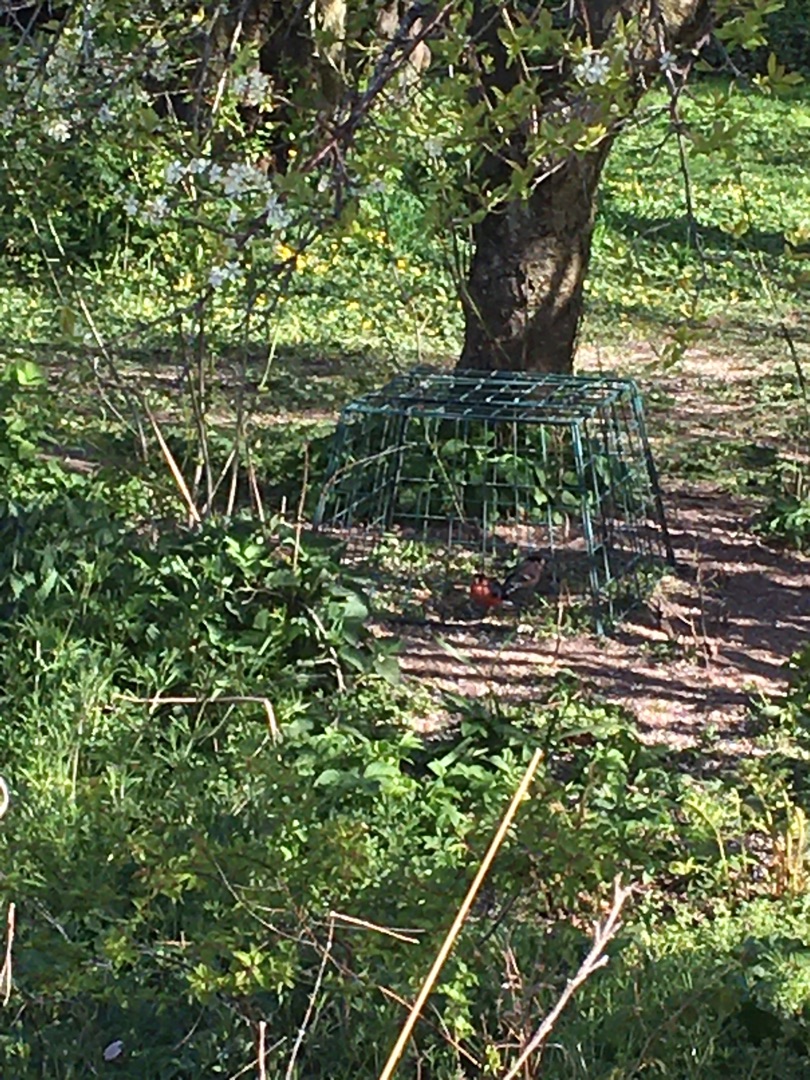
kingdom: Animalia
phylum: Chordata
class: Aves
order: Passeriformes
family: Fringillidae
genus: Pyrrhula
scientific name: Pyrrhula pyrrhula
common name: Dompap
